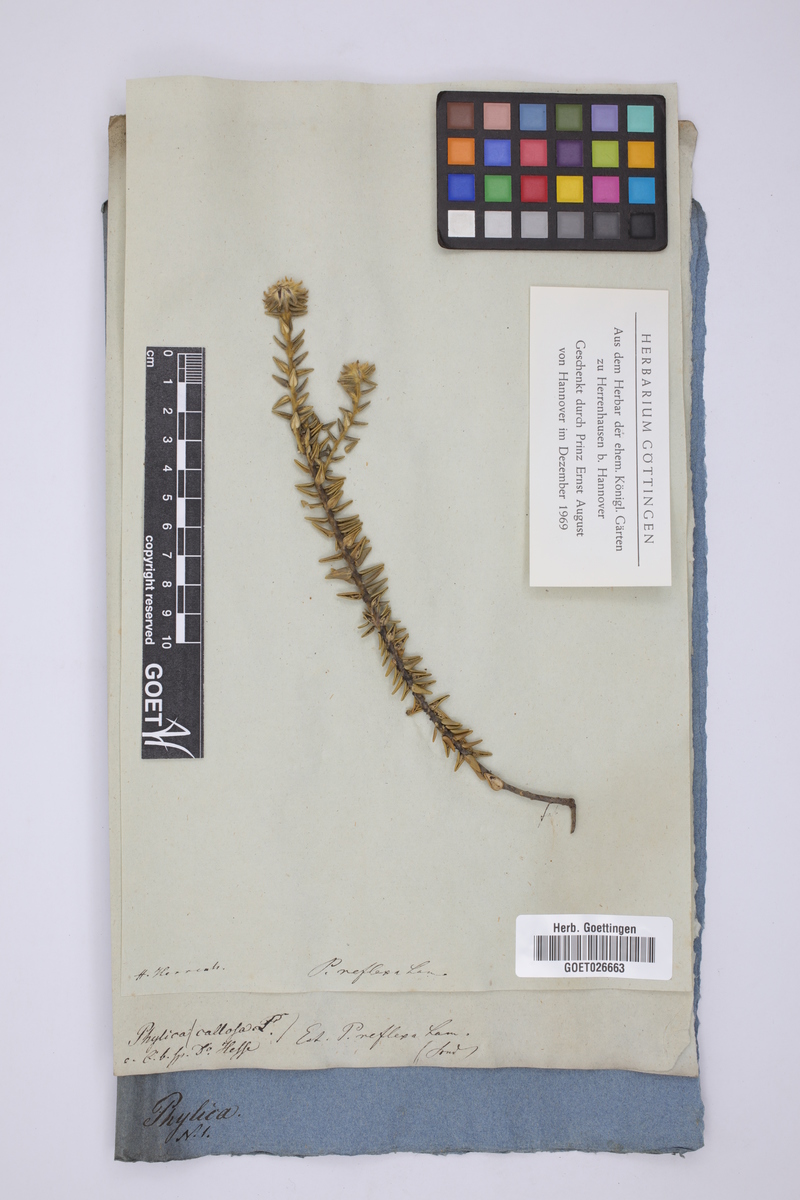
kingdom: Plantae
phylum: Tracheophyta
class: Magnoliopsida
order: Rosales
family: Rhamnaceae
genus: Phylica
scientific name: Phylica dioica
